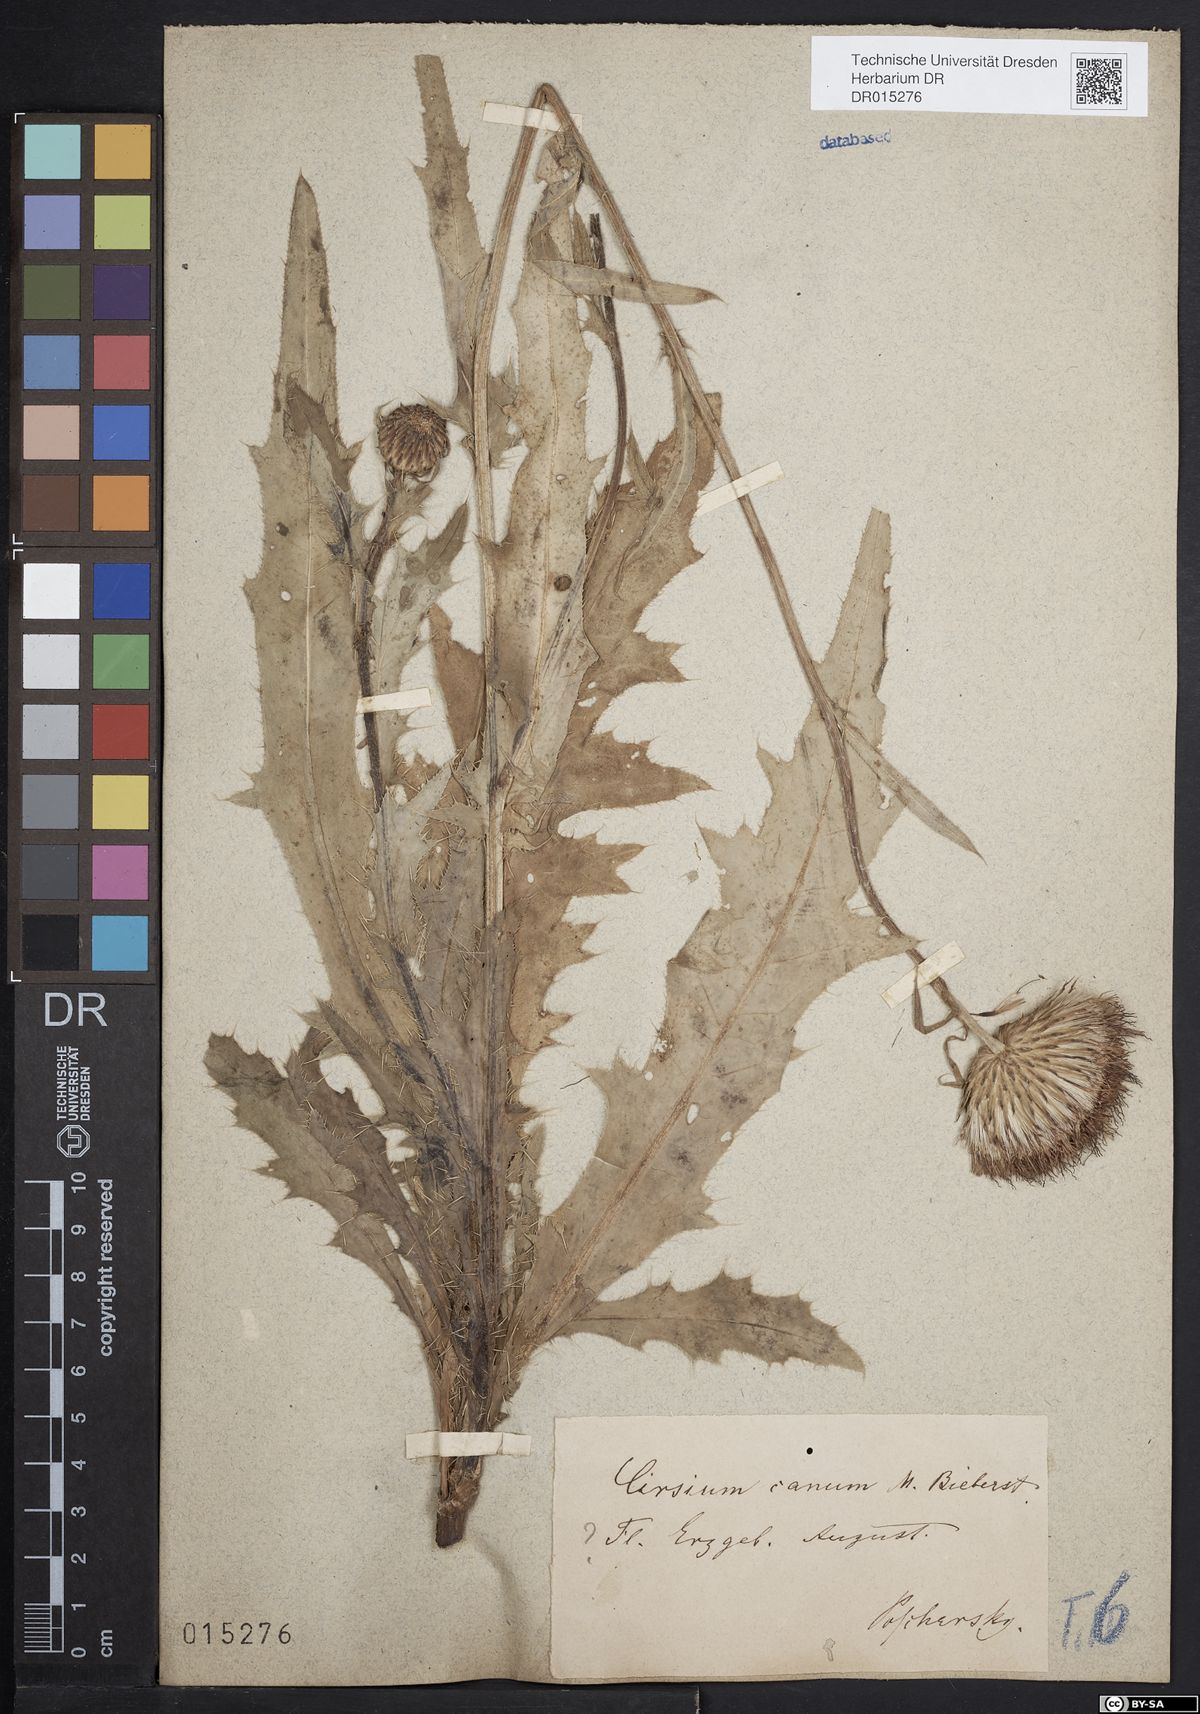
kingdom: Plantae
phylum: Tracheophyta
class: Magnoliopsida
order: Asterales
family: Asteraceae
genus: Cirsium
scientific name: Cirsium tataricum
